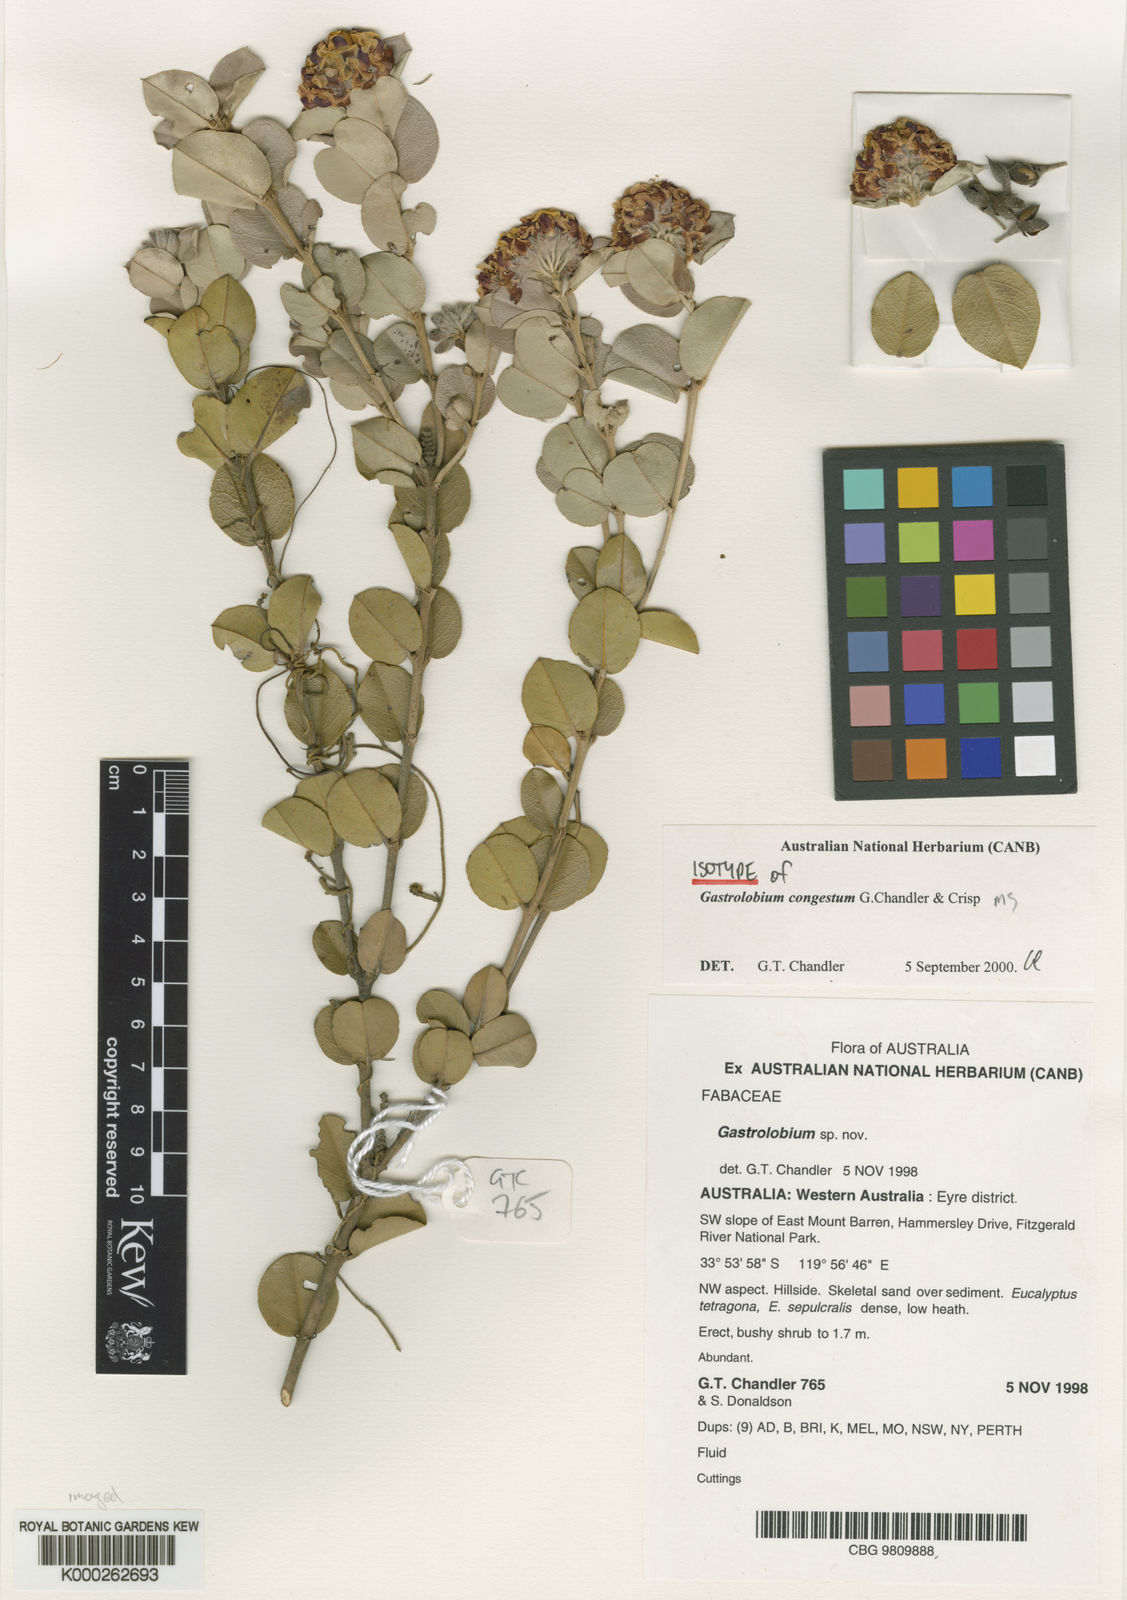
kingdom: Plantae
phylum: Tracheophyta
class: Magnoliopsida
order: Fabales
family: Fabaceae
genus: Gastrolobium
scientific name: Gastrolobium
